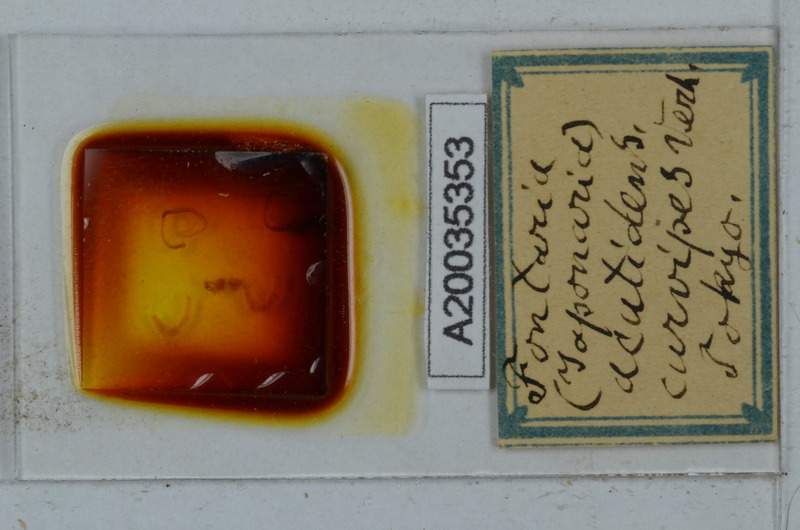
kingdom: Animalia
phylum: Arthropoda
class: Diplopoda
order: Polydesmida
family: Xystodesmidae
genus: Parafontaria
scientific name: Parafontaria tonominea
